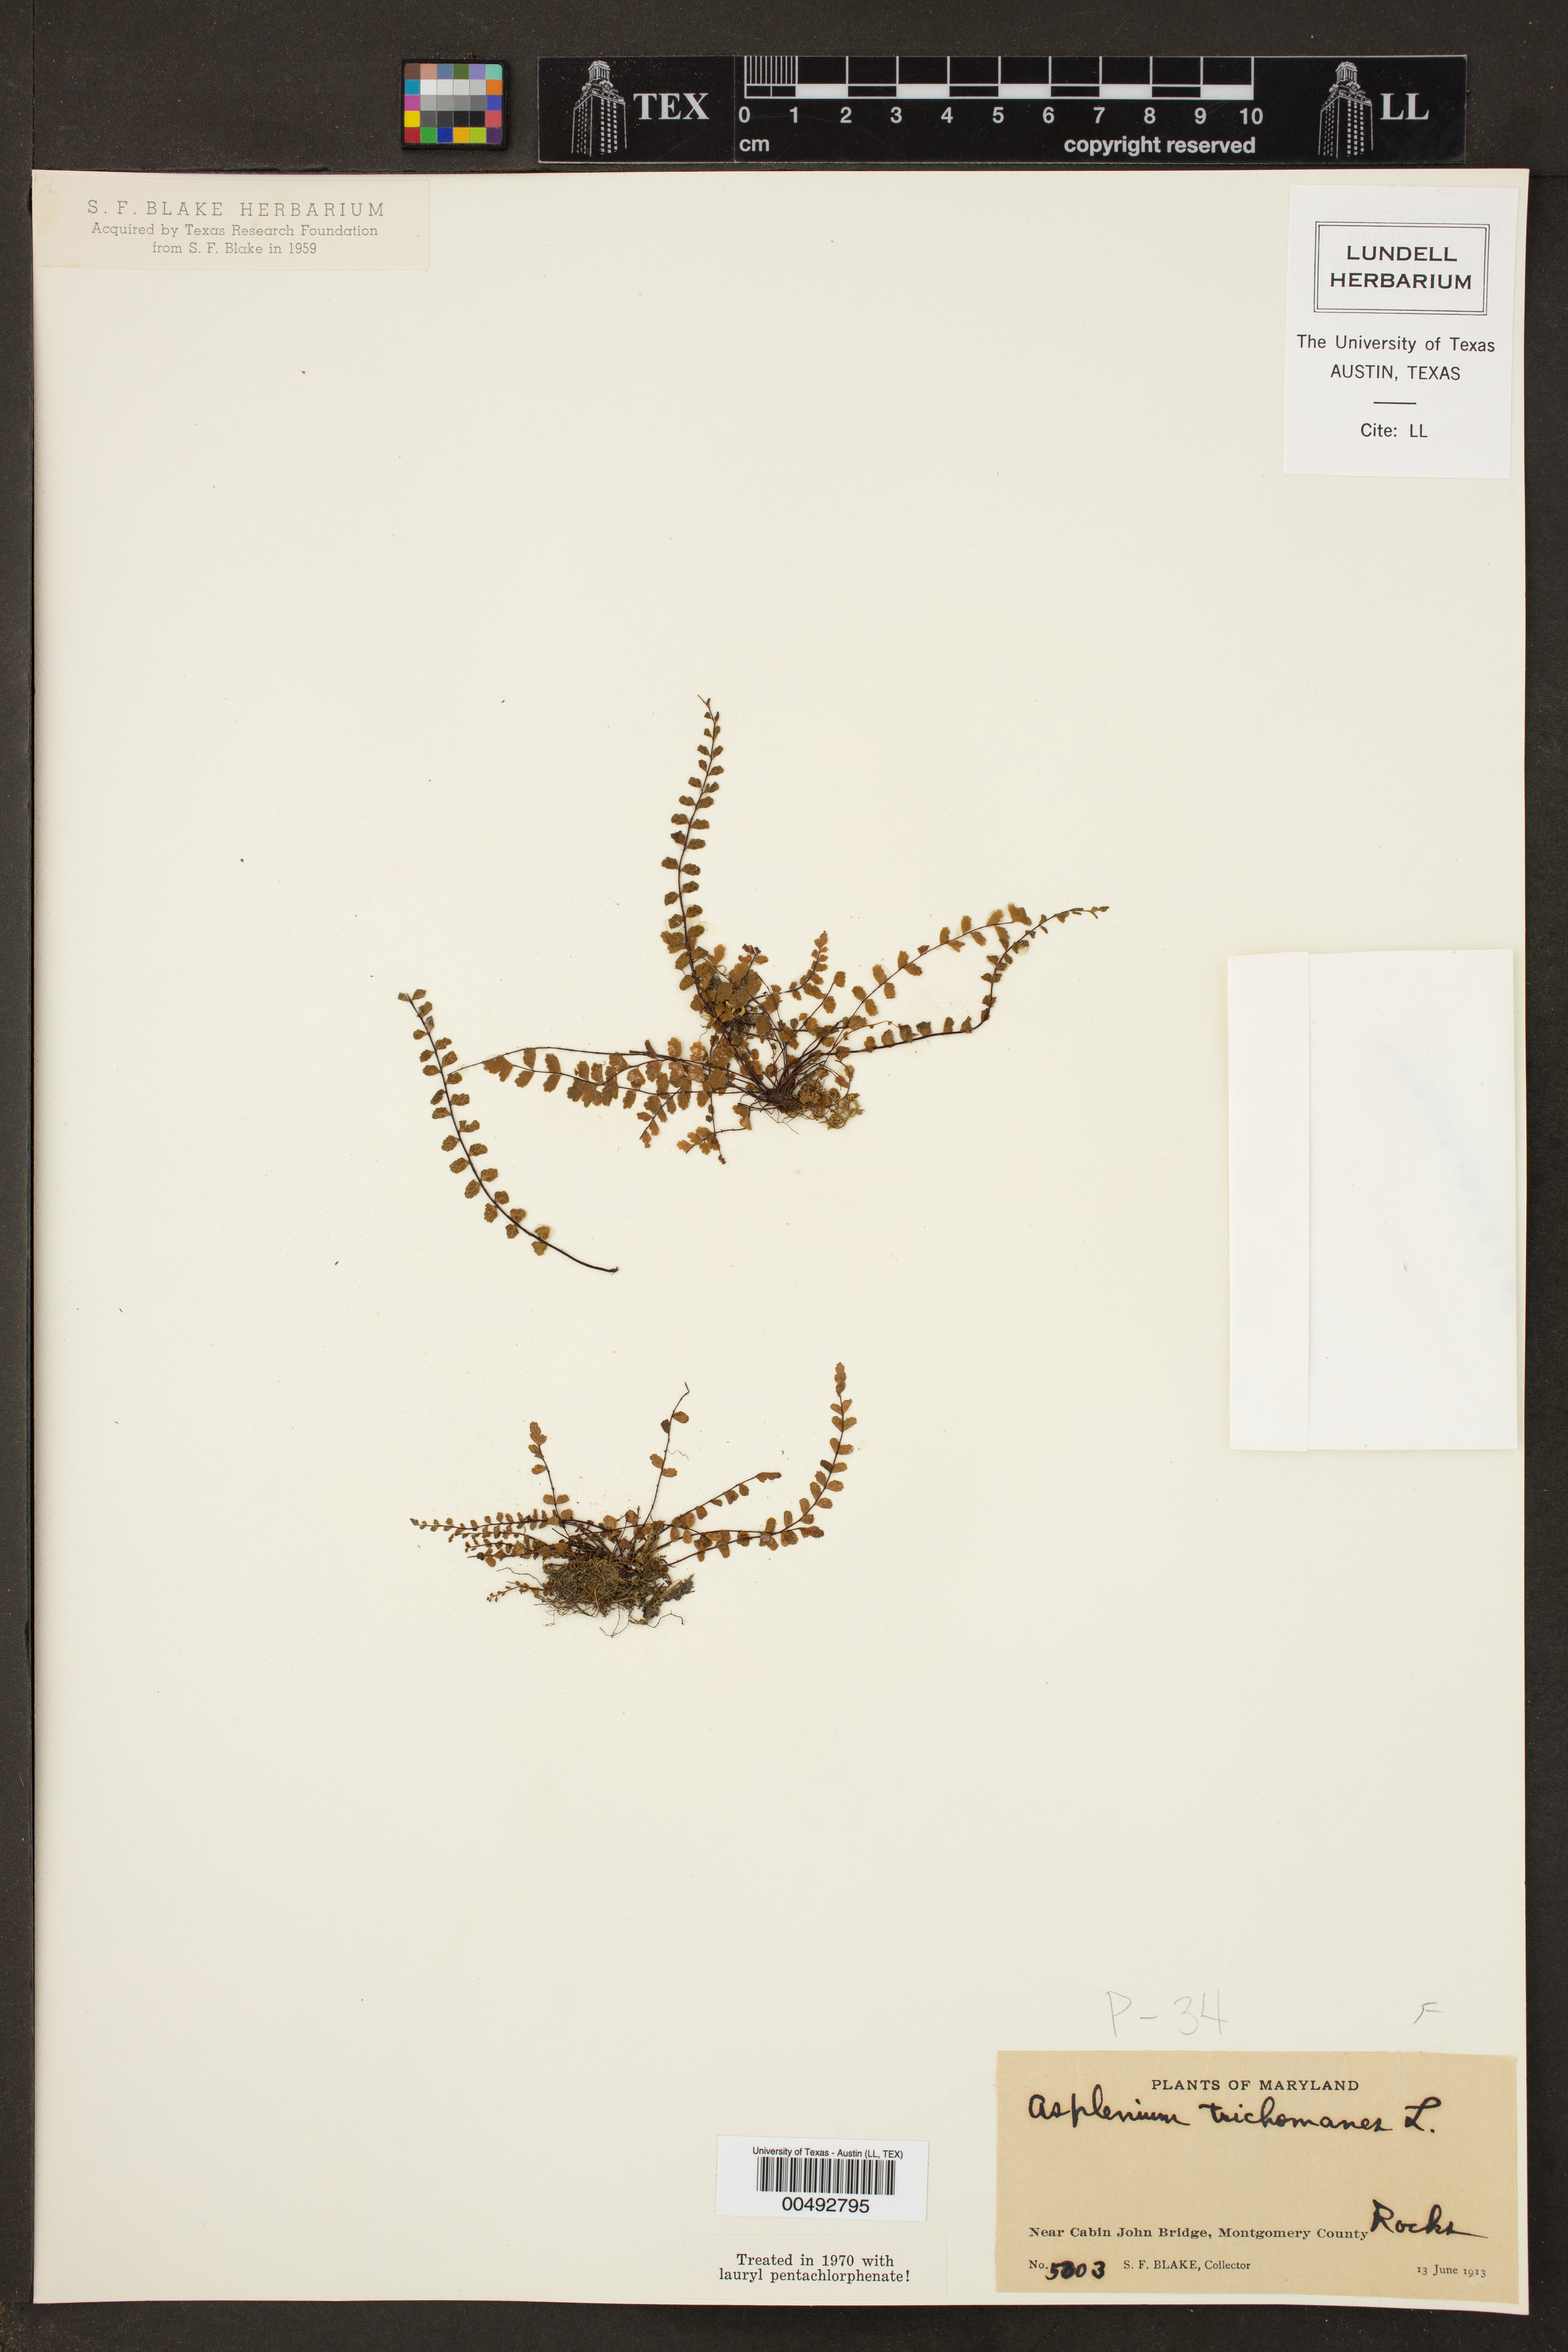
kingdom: Plantae
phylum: Tracheophyta
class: Polypodiopsida
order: Polypodiales
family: Aspleniaceae
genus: Asplenium
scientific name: Asplenium trichomanes
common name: Maidenhair spleenwort
